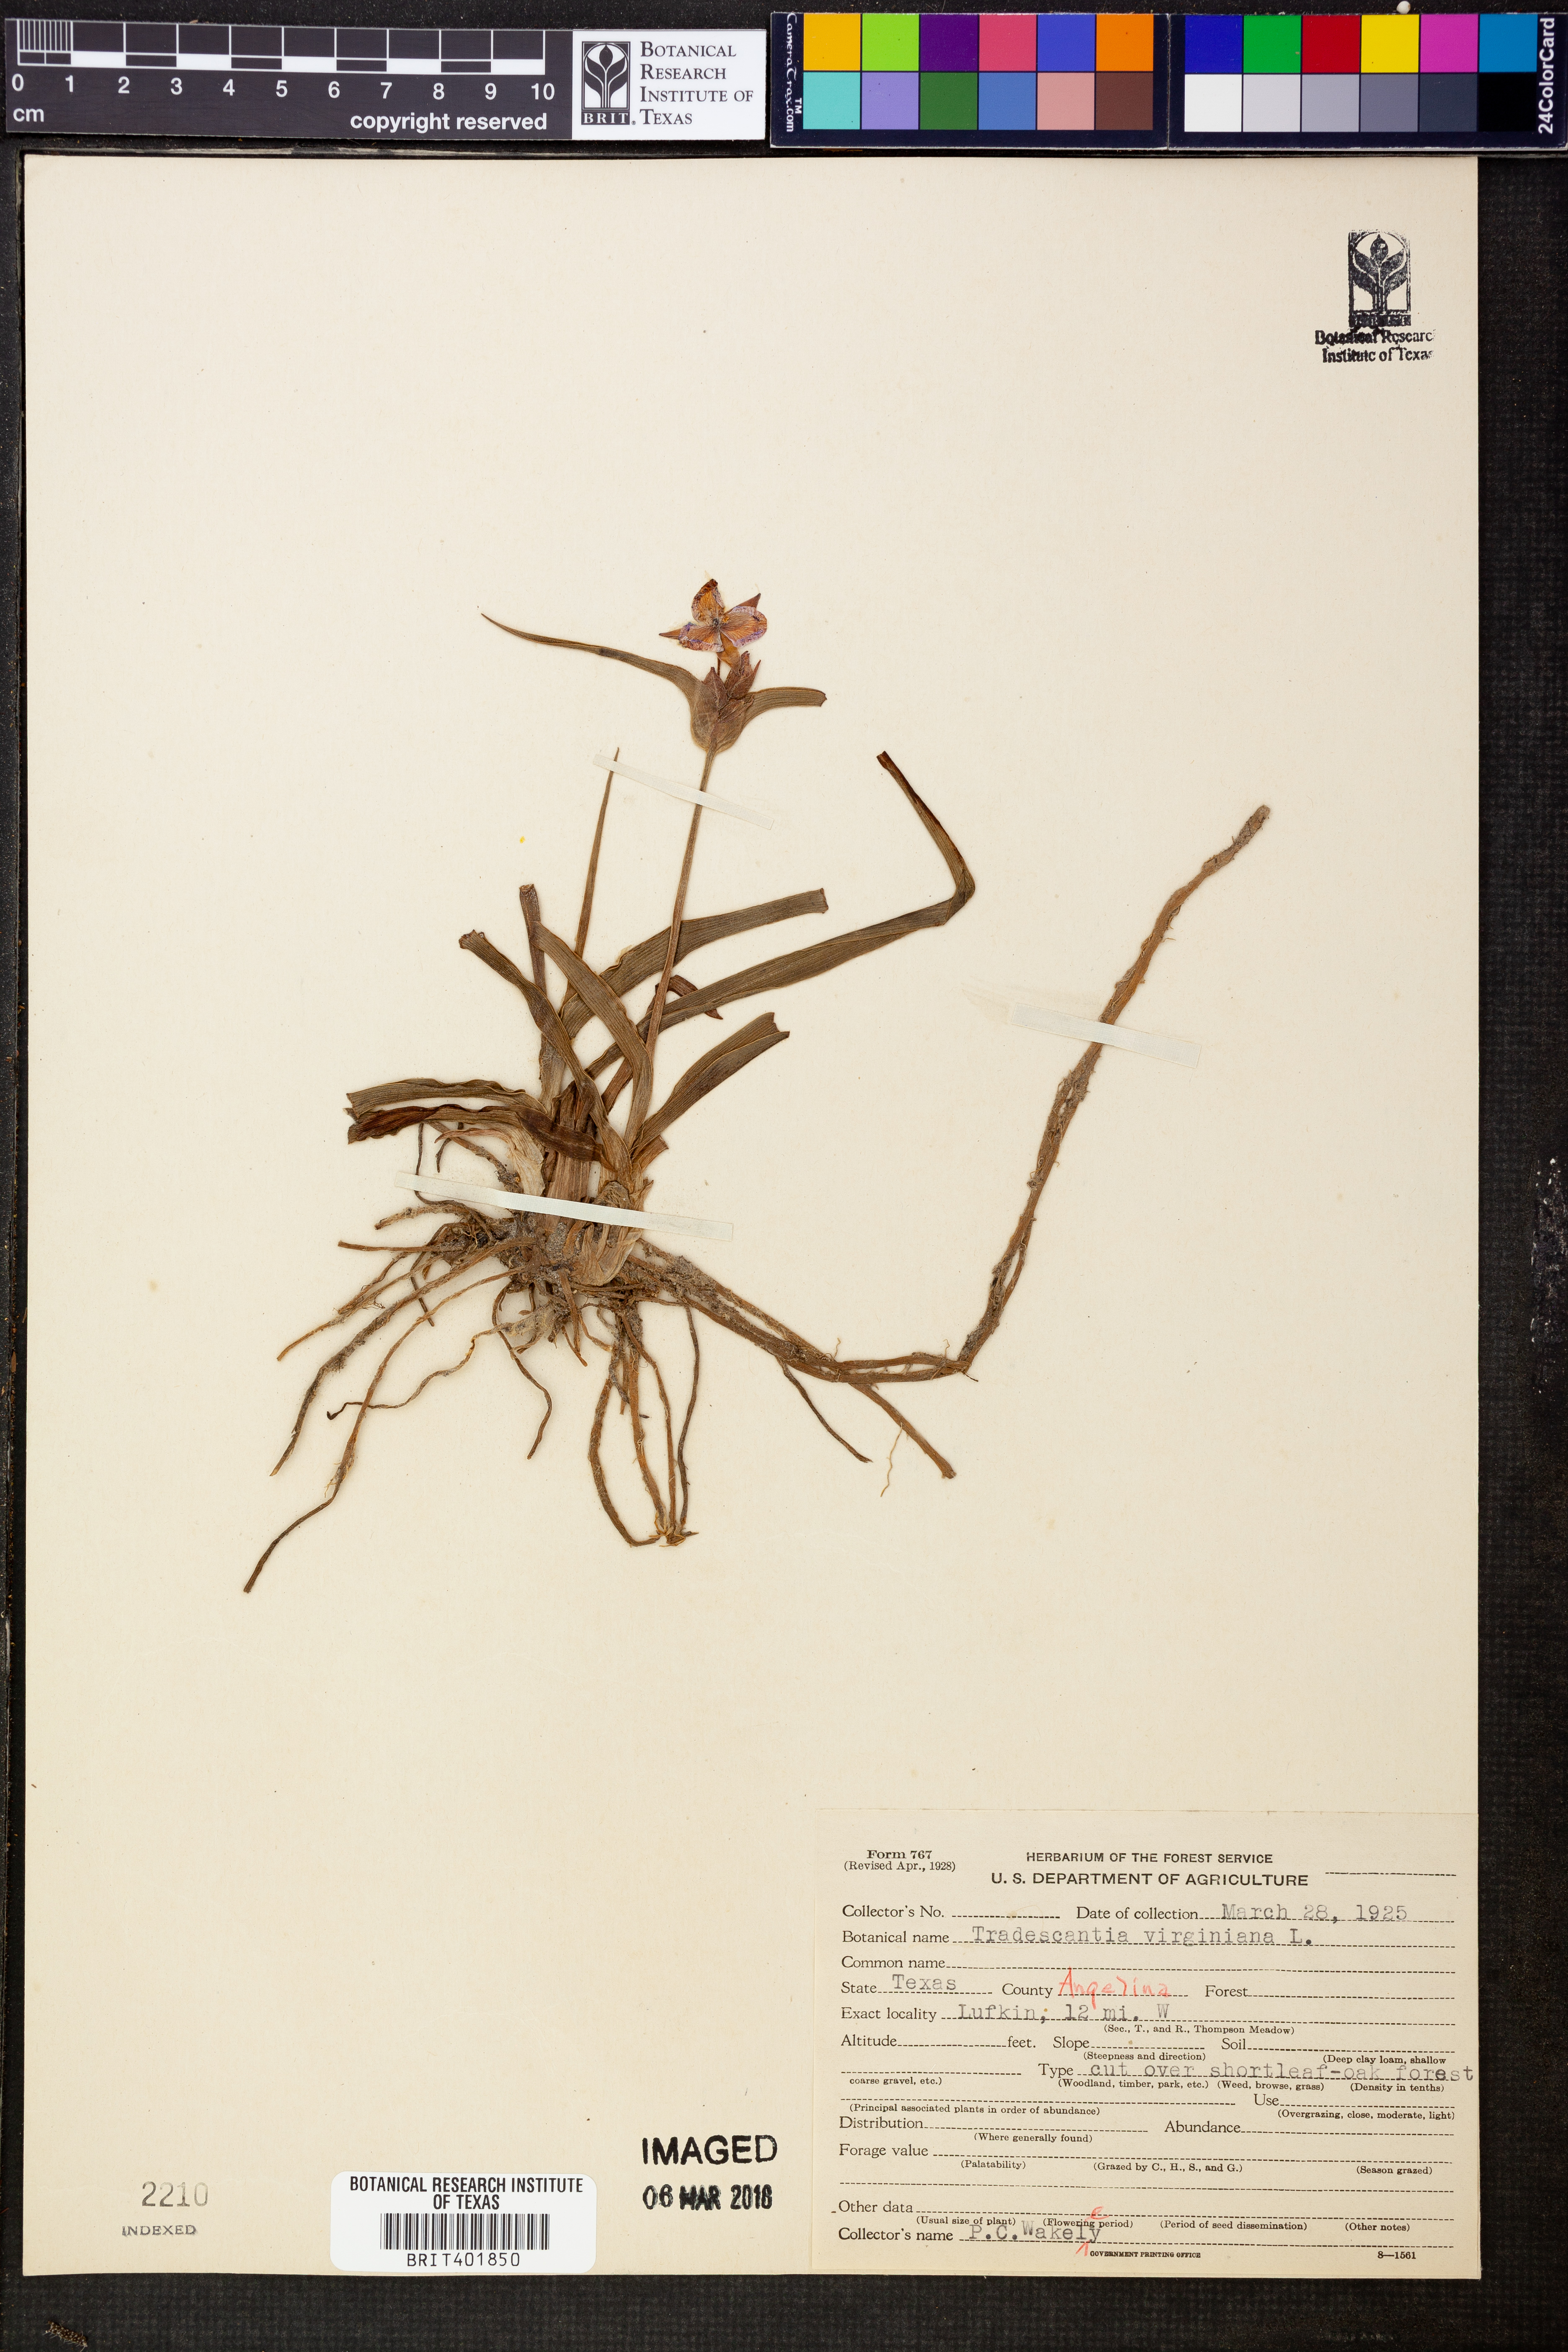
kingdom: Plantae
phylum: Tracheophyta
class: Liliopsida
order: Commelinales
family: Commelinaceae
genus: Tradescantia
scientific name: Tradescantia virginiana
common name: Spiderwort
